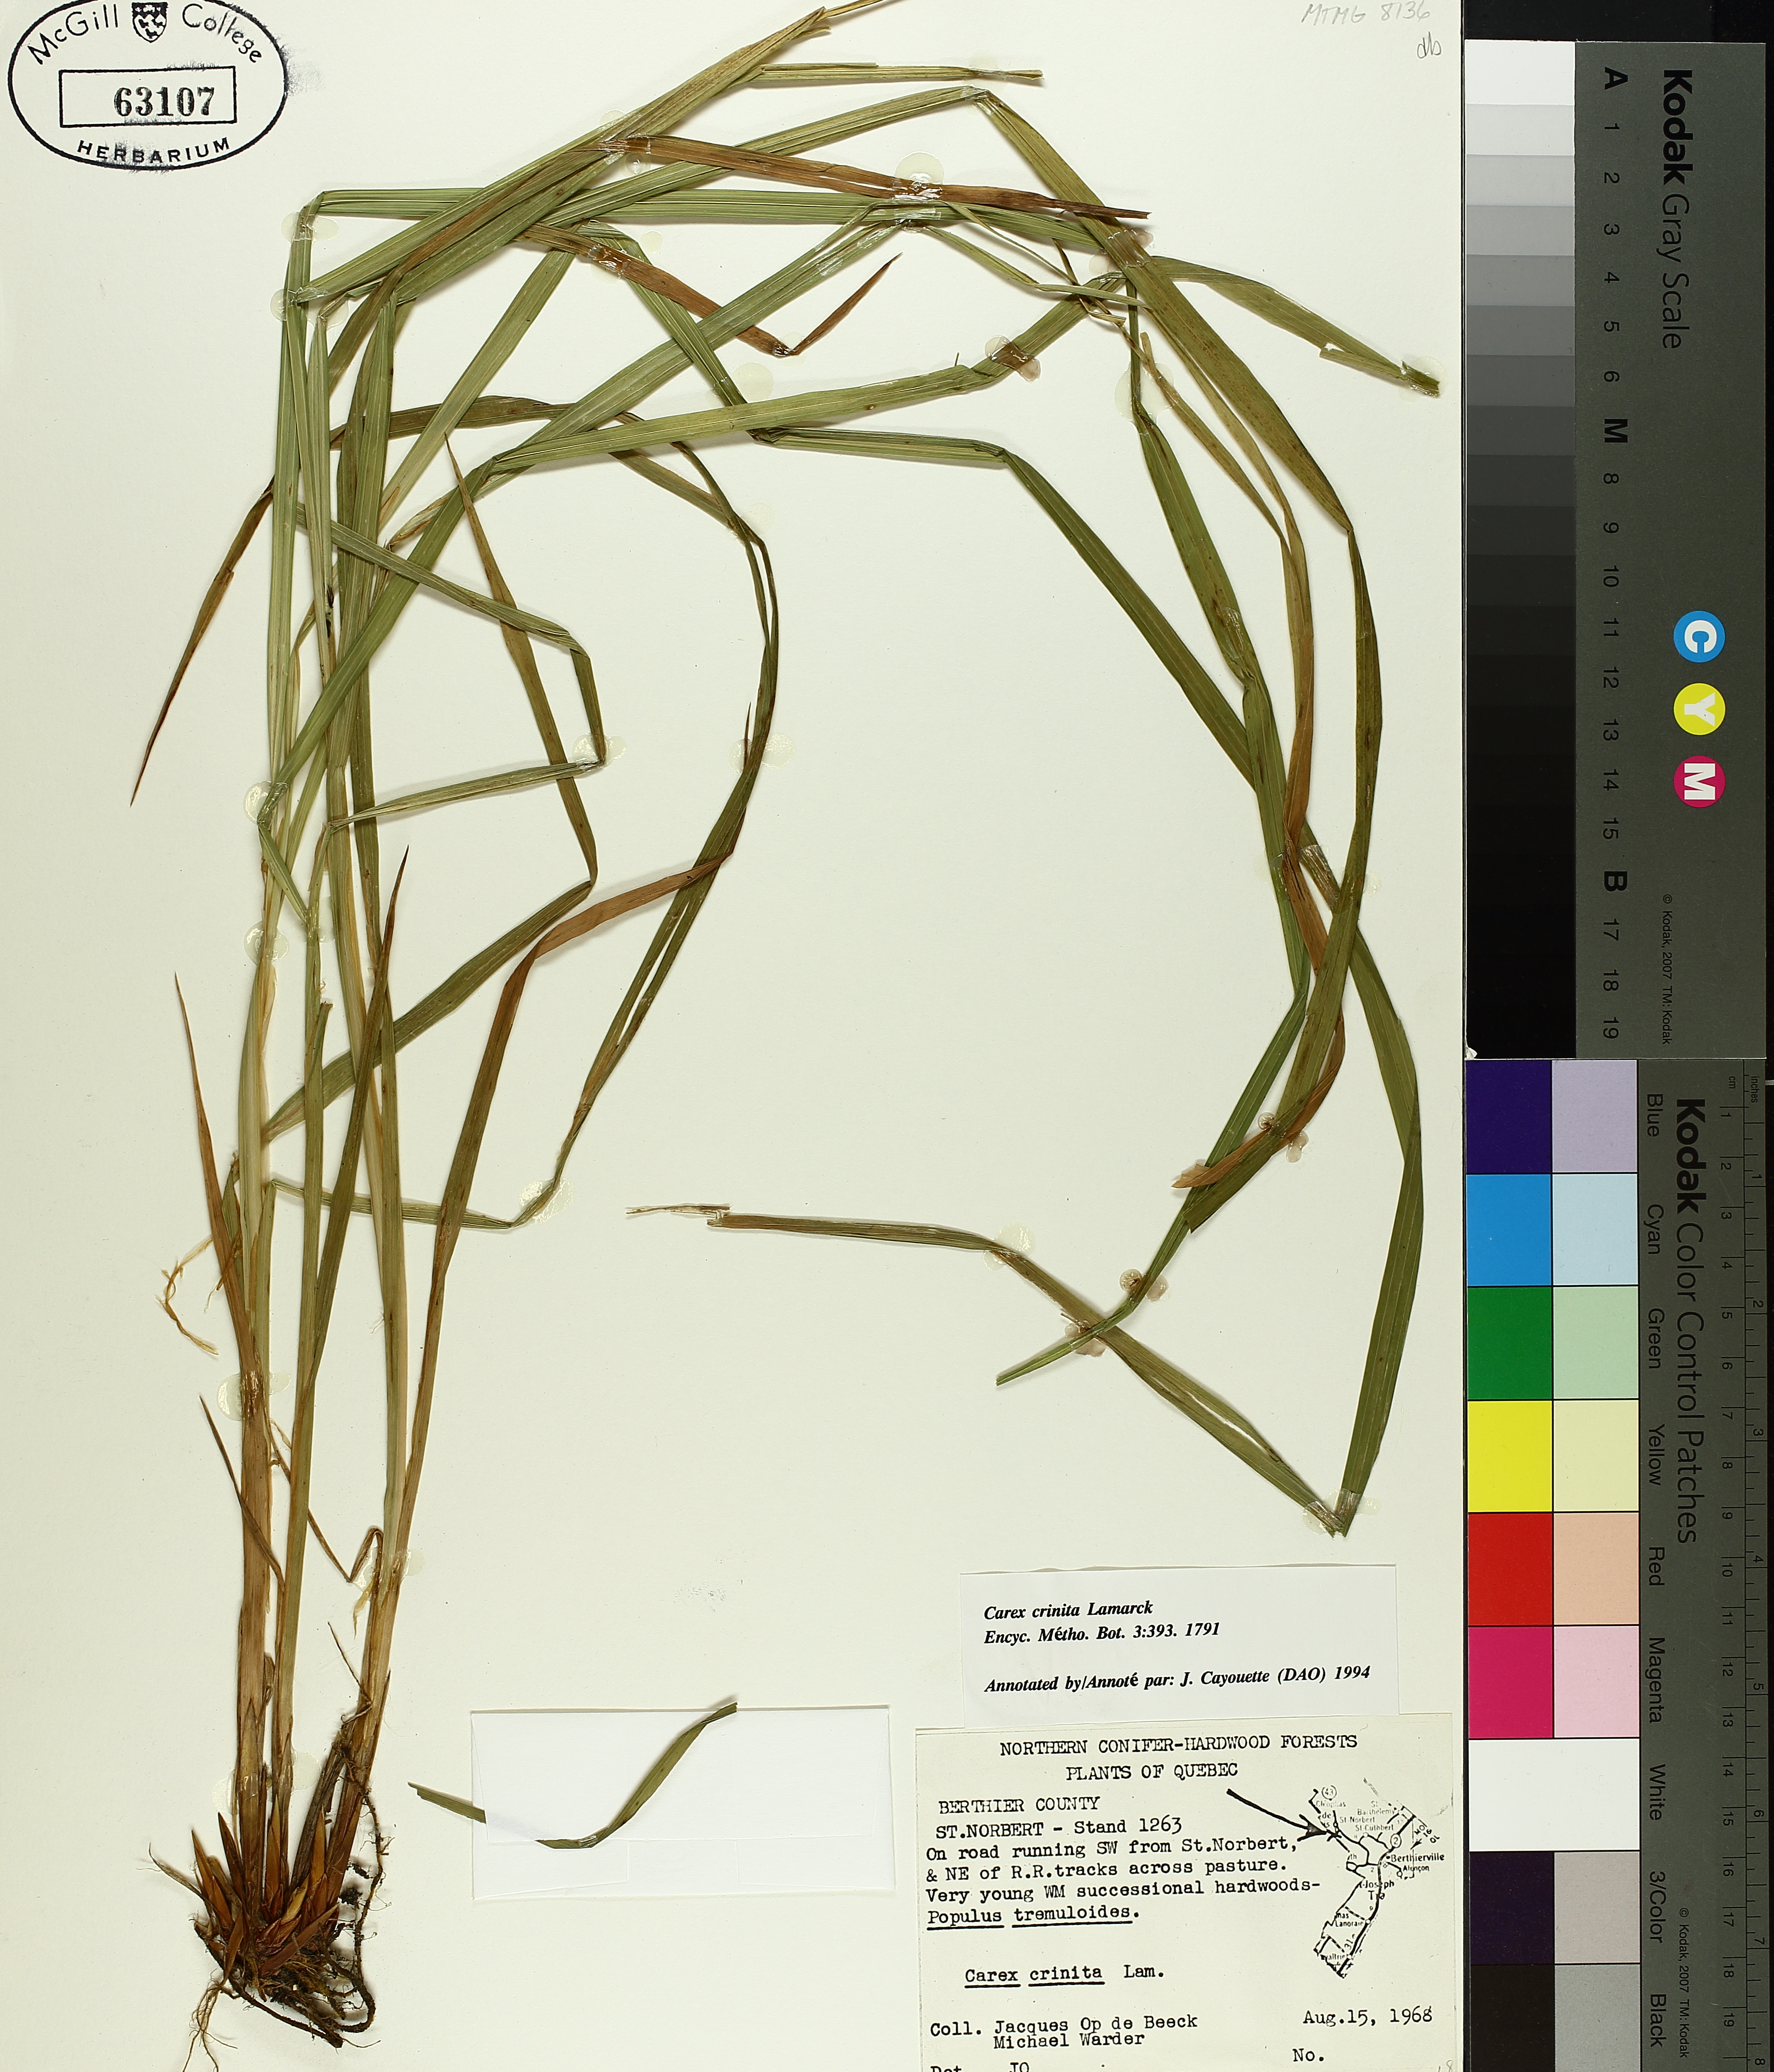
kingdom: Plantae
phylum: Tracheophyta
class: Liliopsida
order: Poales
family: Cyperaceae
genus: Carex
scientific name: Carex crinita
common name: Fringed sedge
